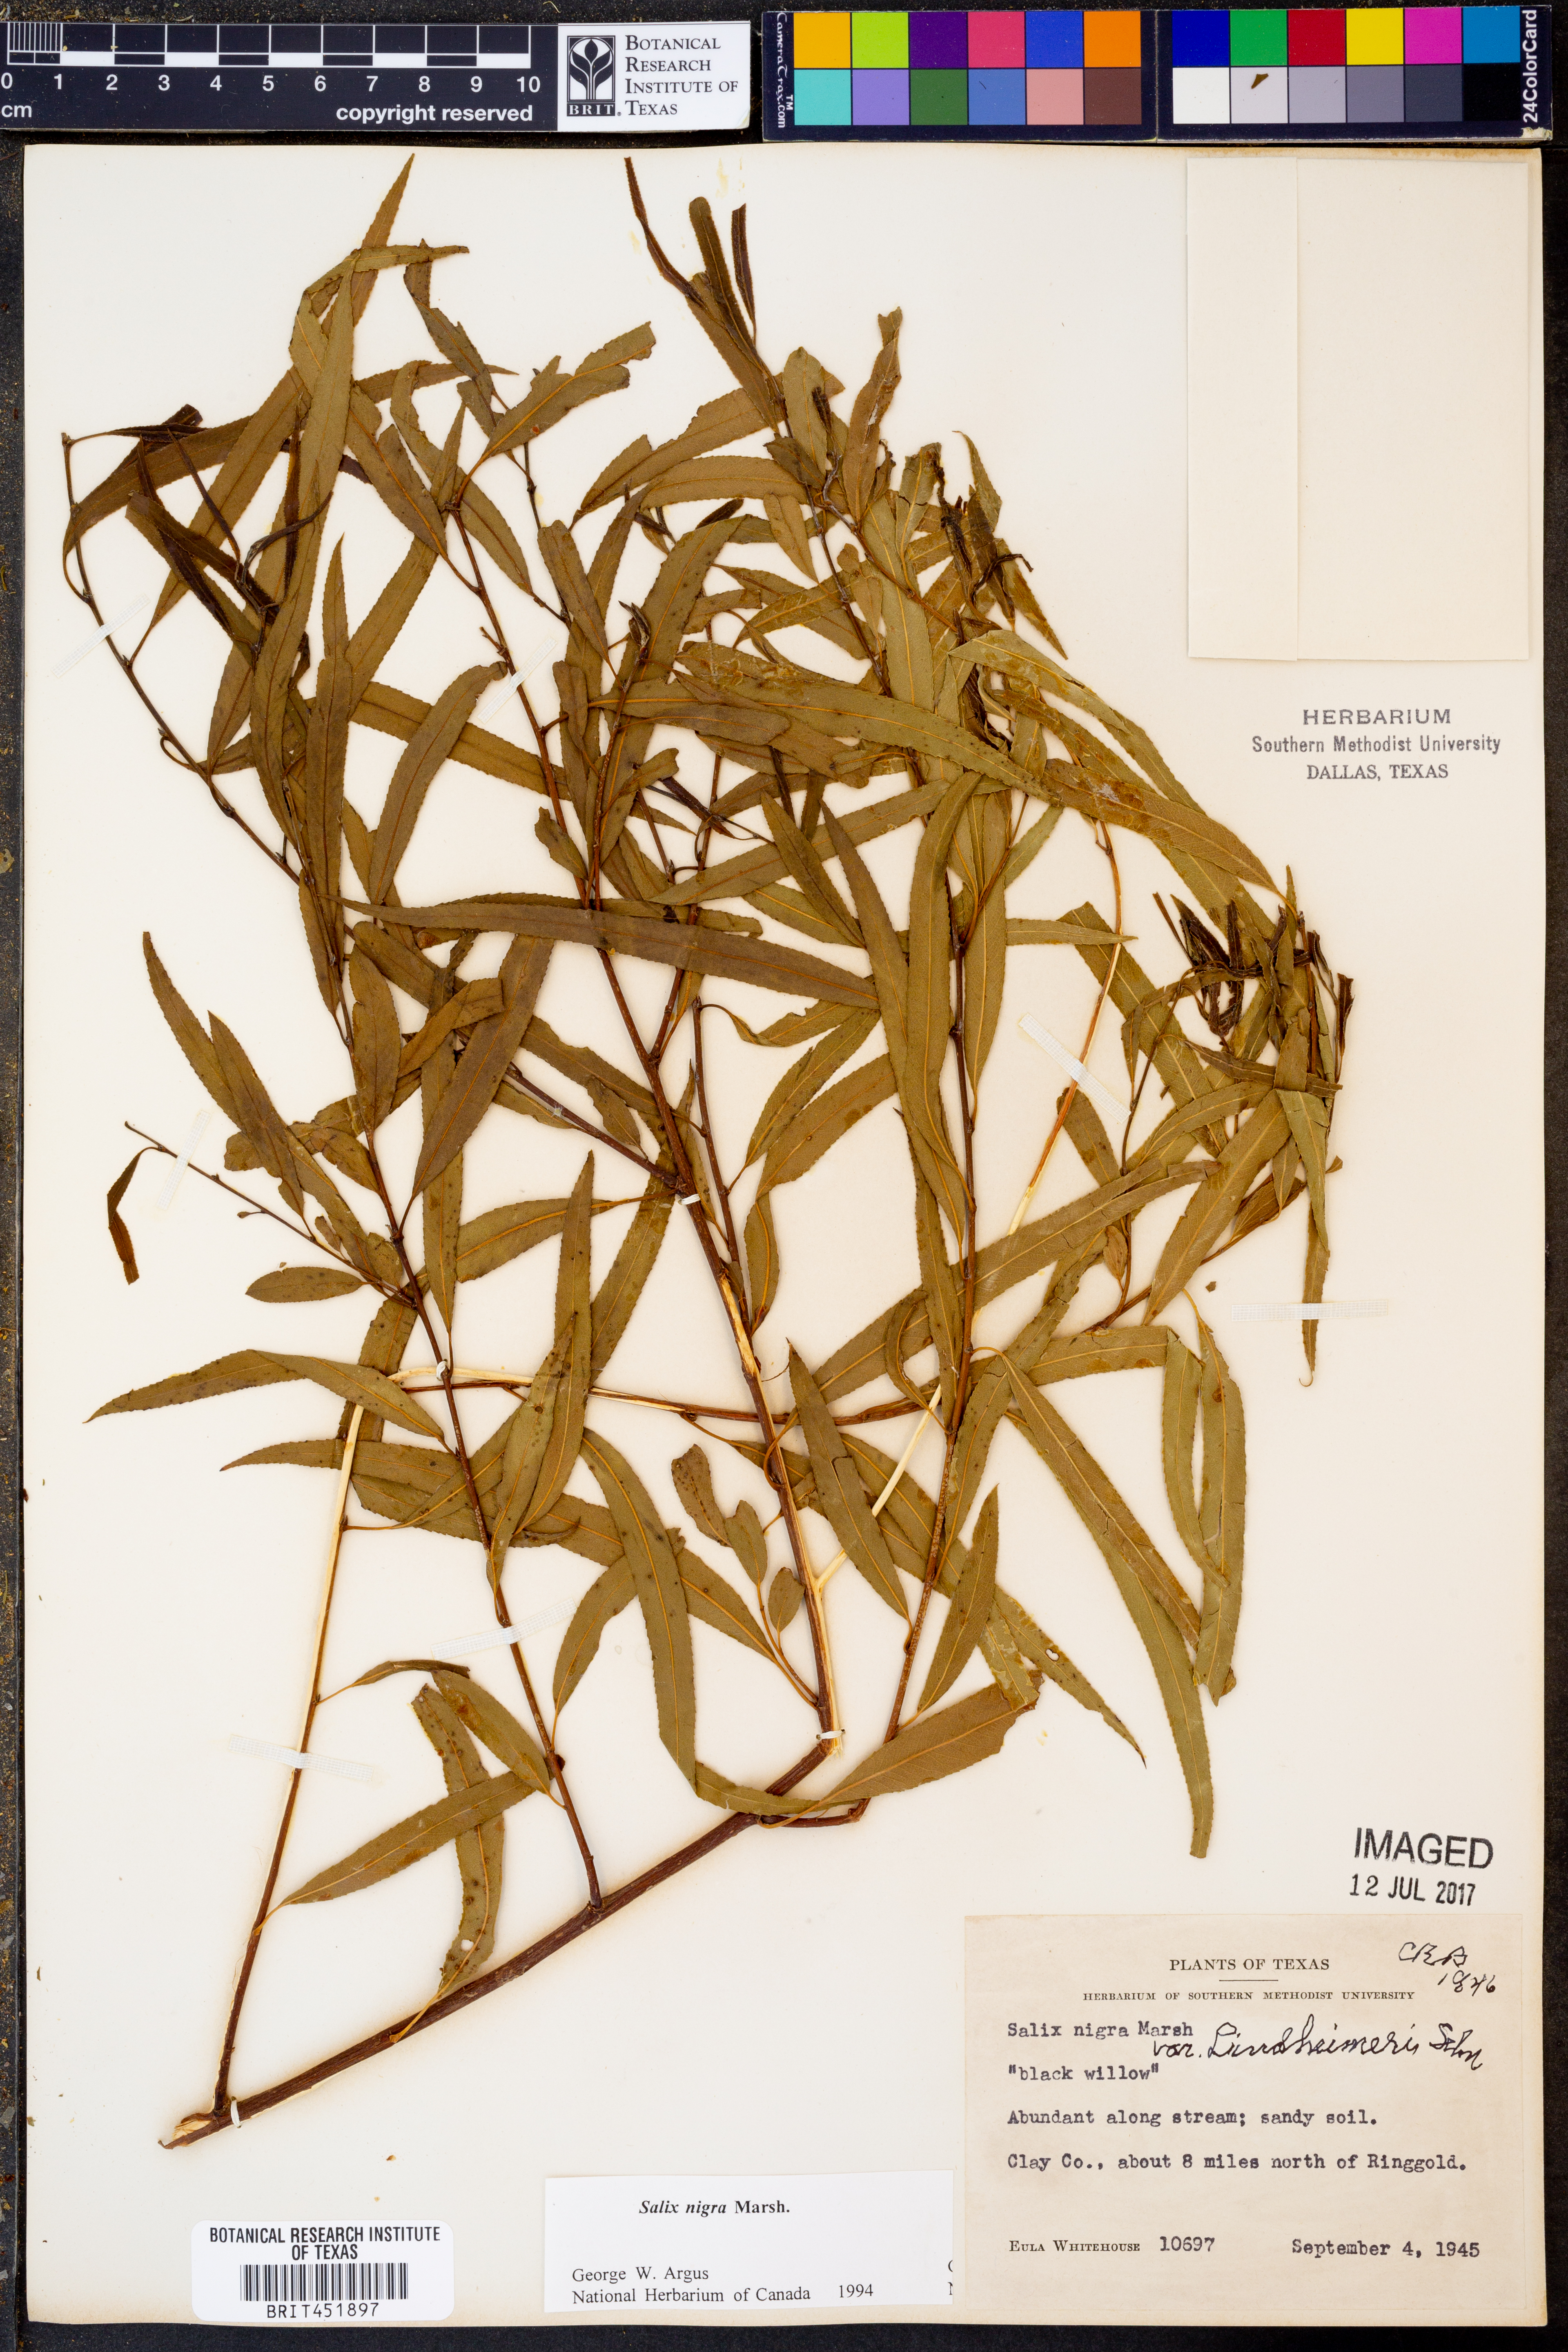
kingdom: Plantae
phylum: Tracheophyta
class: Magnoliopsida
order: Malpighiales
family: Salicaceae
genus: Salix
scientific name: Salix nigra
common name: Black willow
